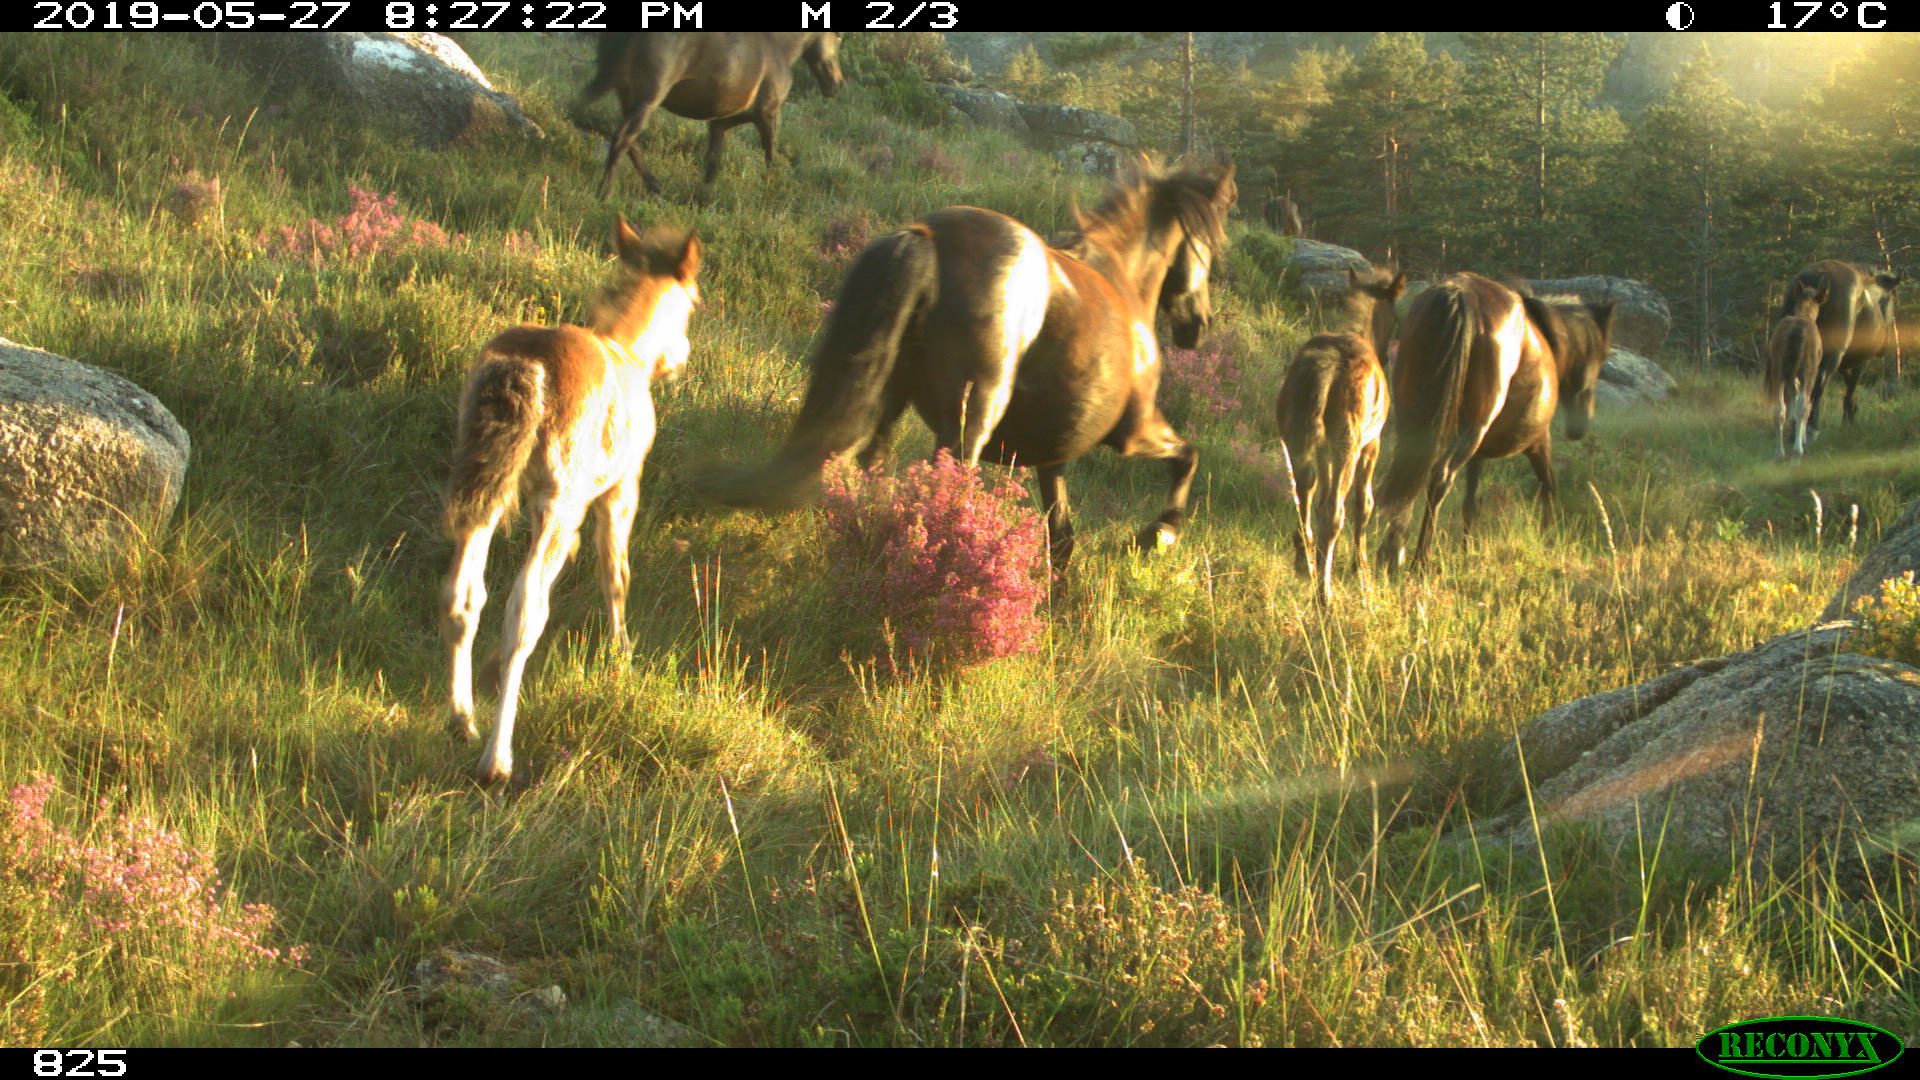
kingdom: Animalia
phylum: Chordata
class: Mammalia
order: Perissodactyla
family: Equidae
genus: Equus
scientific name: Equus caballus
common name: Horse
